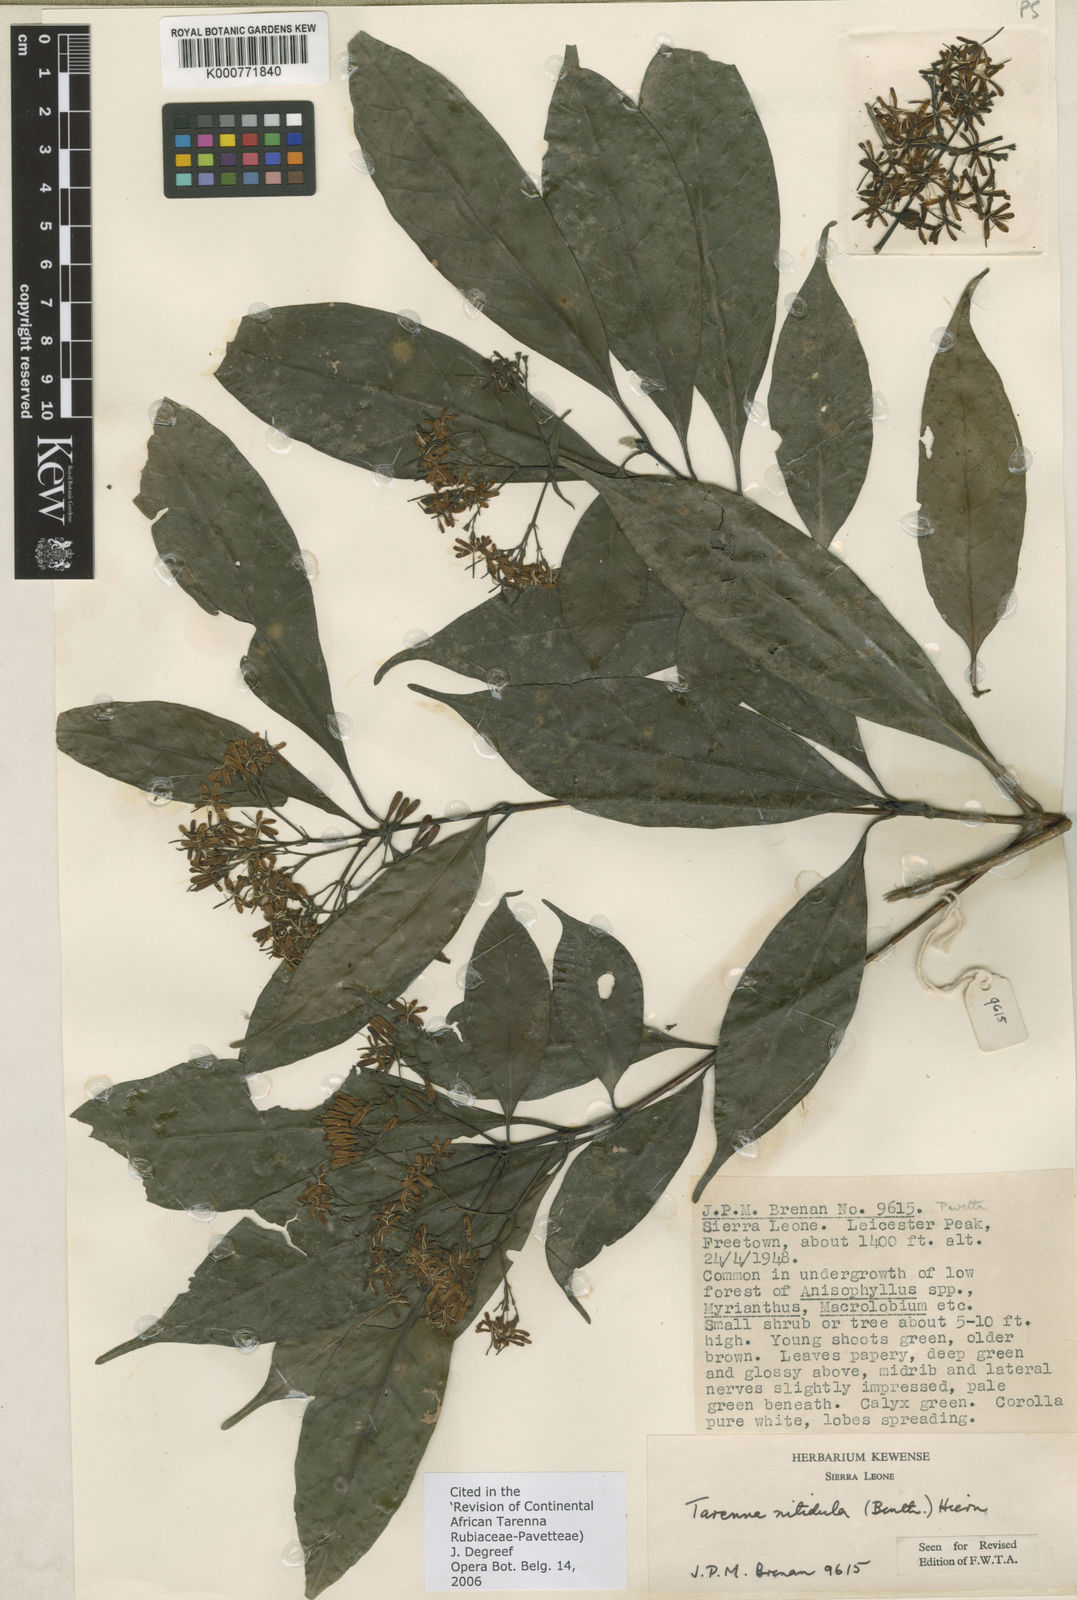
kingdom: Plantae
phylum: Tracheophyta
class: Magnoliopsida
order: Gentianales
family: Rubiaceae
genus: Tarenna
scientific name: Tarenna nitidula
